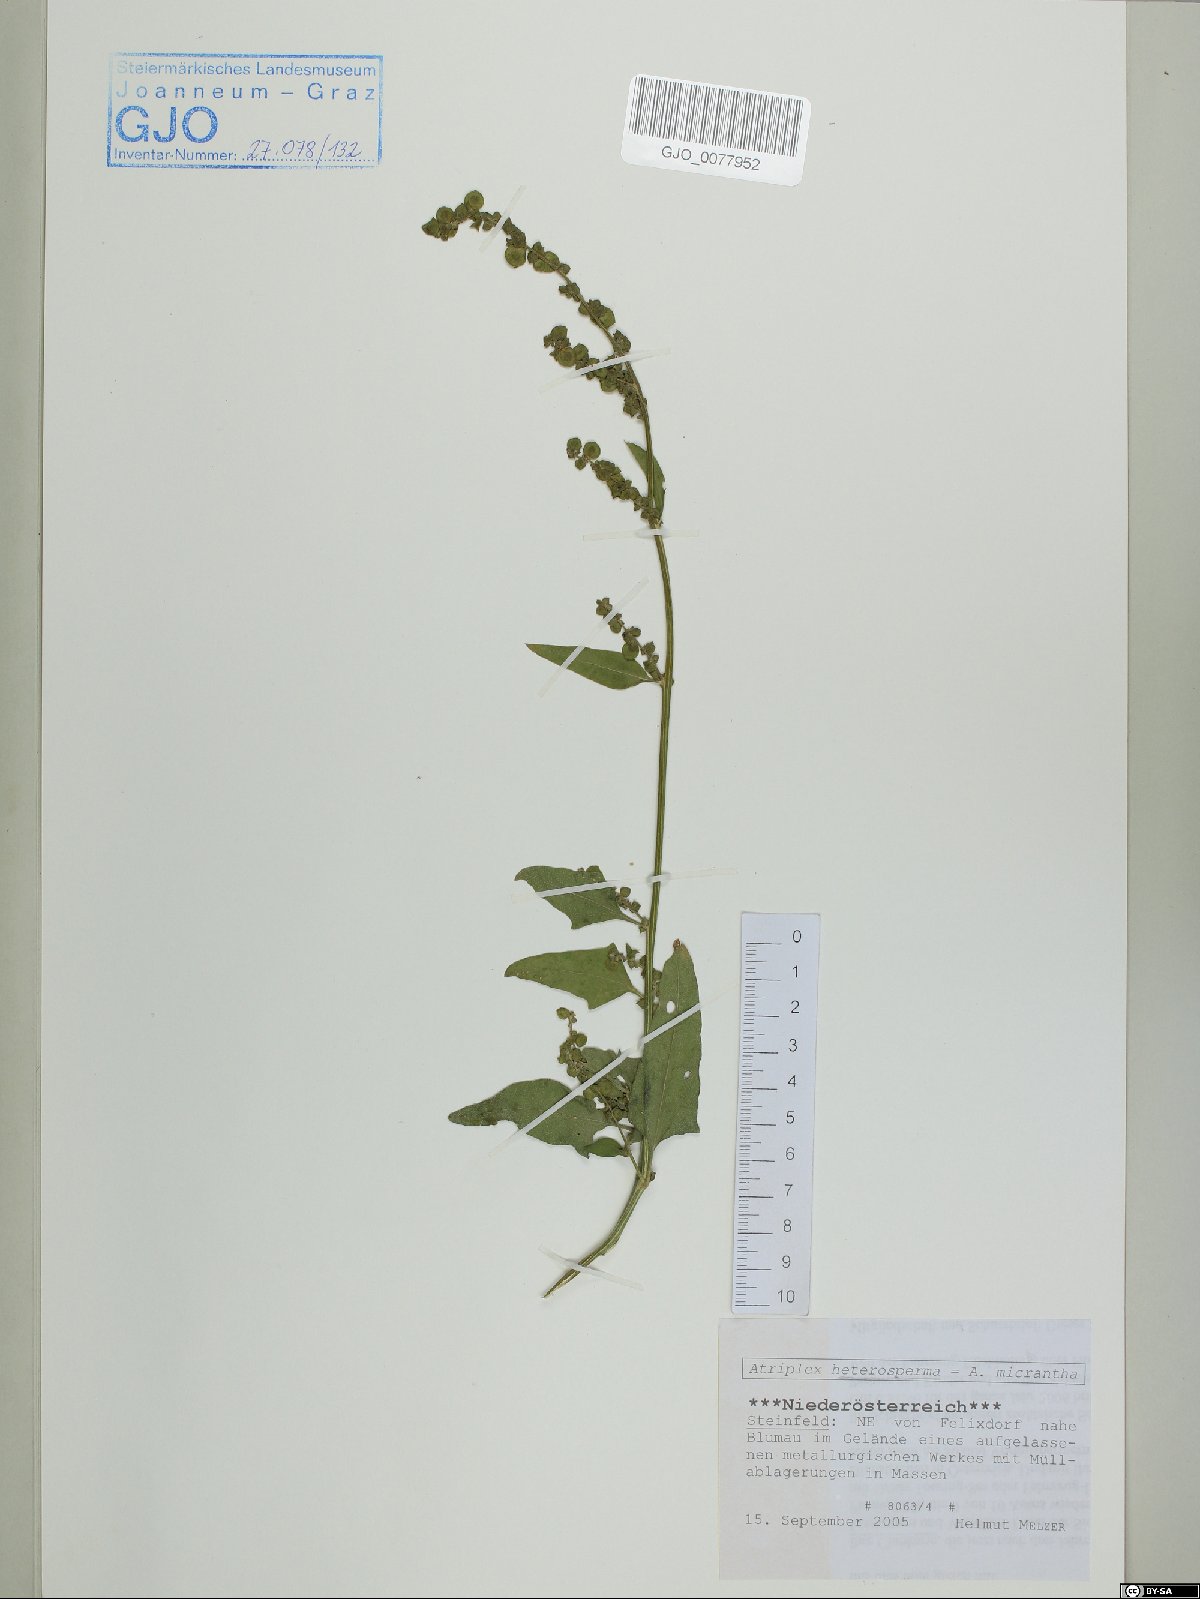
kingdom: Plantae
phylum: Tracheophyta
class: Magnoliopsida
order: Caryophyllales
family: Amaranthaceae
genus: Atriplex
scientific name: Atriplex micrantha
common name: Twoscale saltbush
